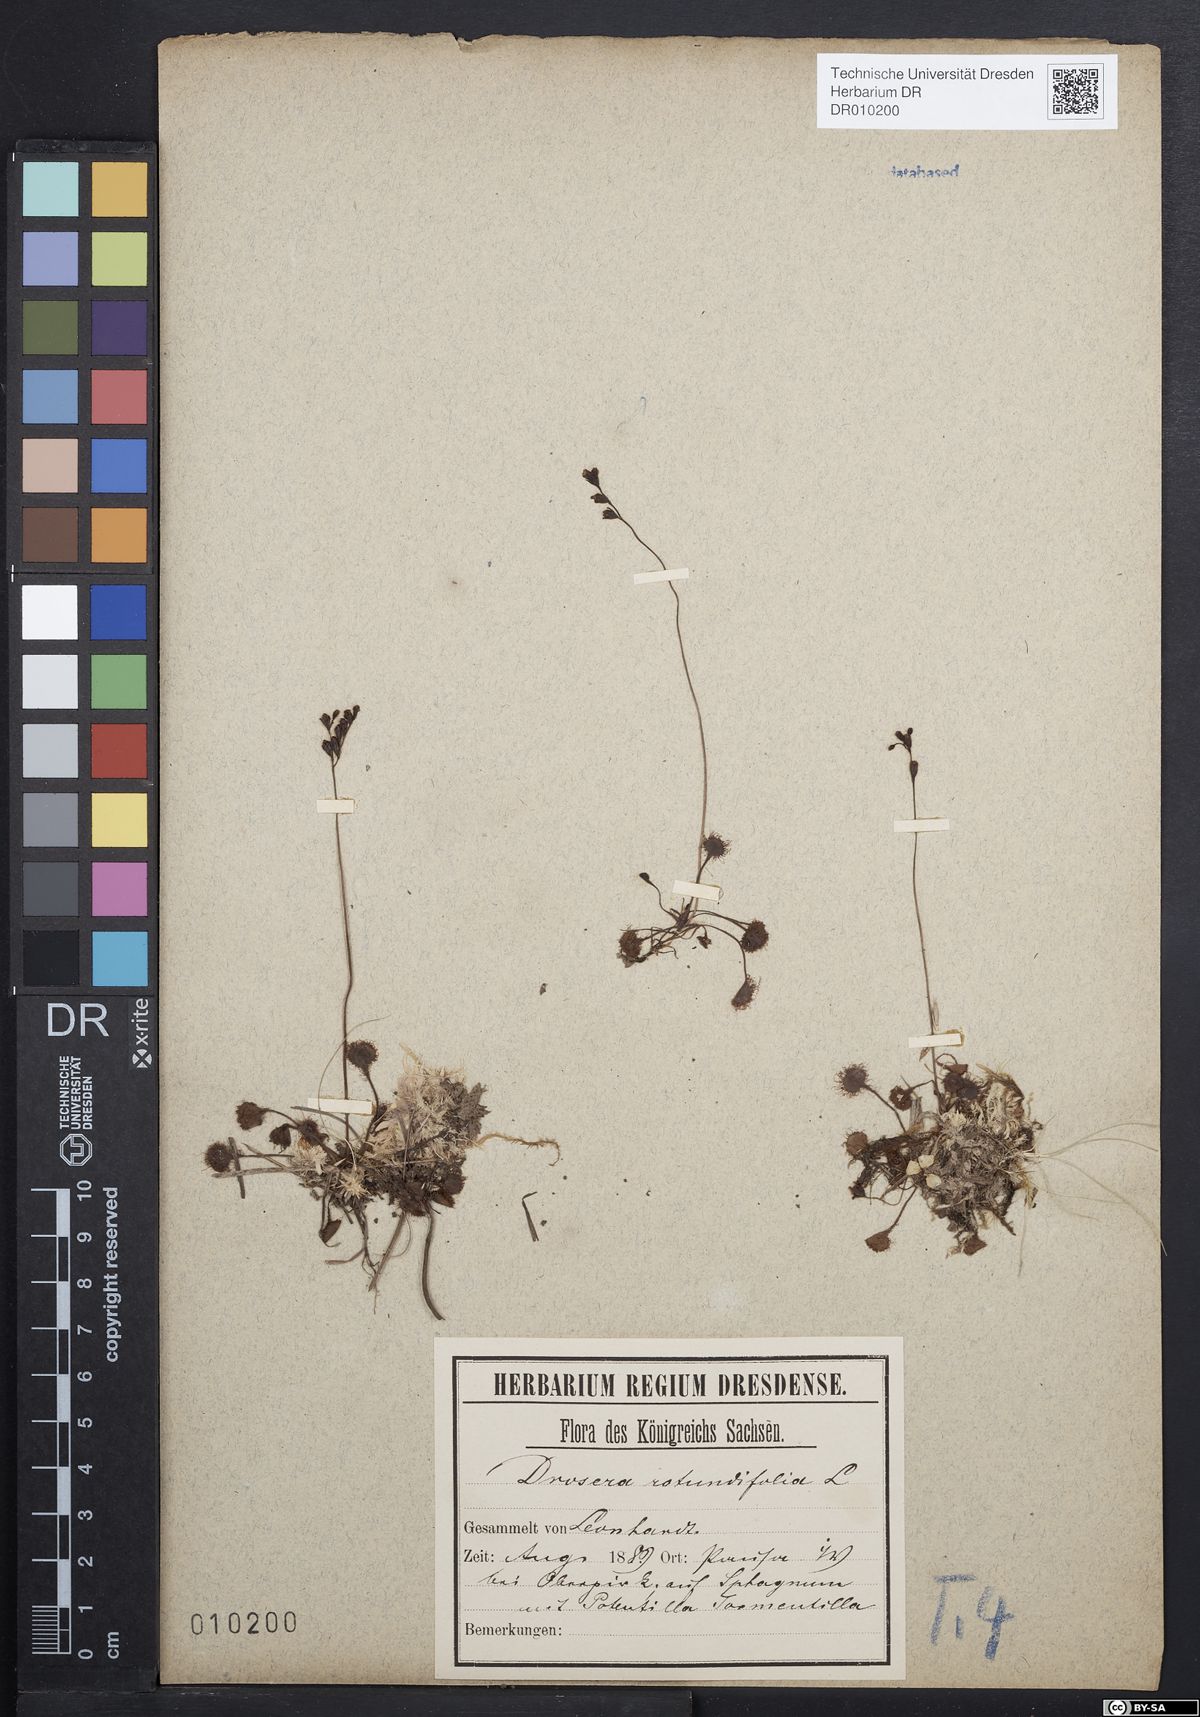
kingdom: Plantae
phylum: Tracheophyta
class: Magnoliopsida
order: Caryophyllales
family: Droseraceae
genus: Drosera
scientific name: Drosera rotundifolia
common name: Round-leaved sundew
